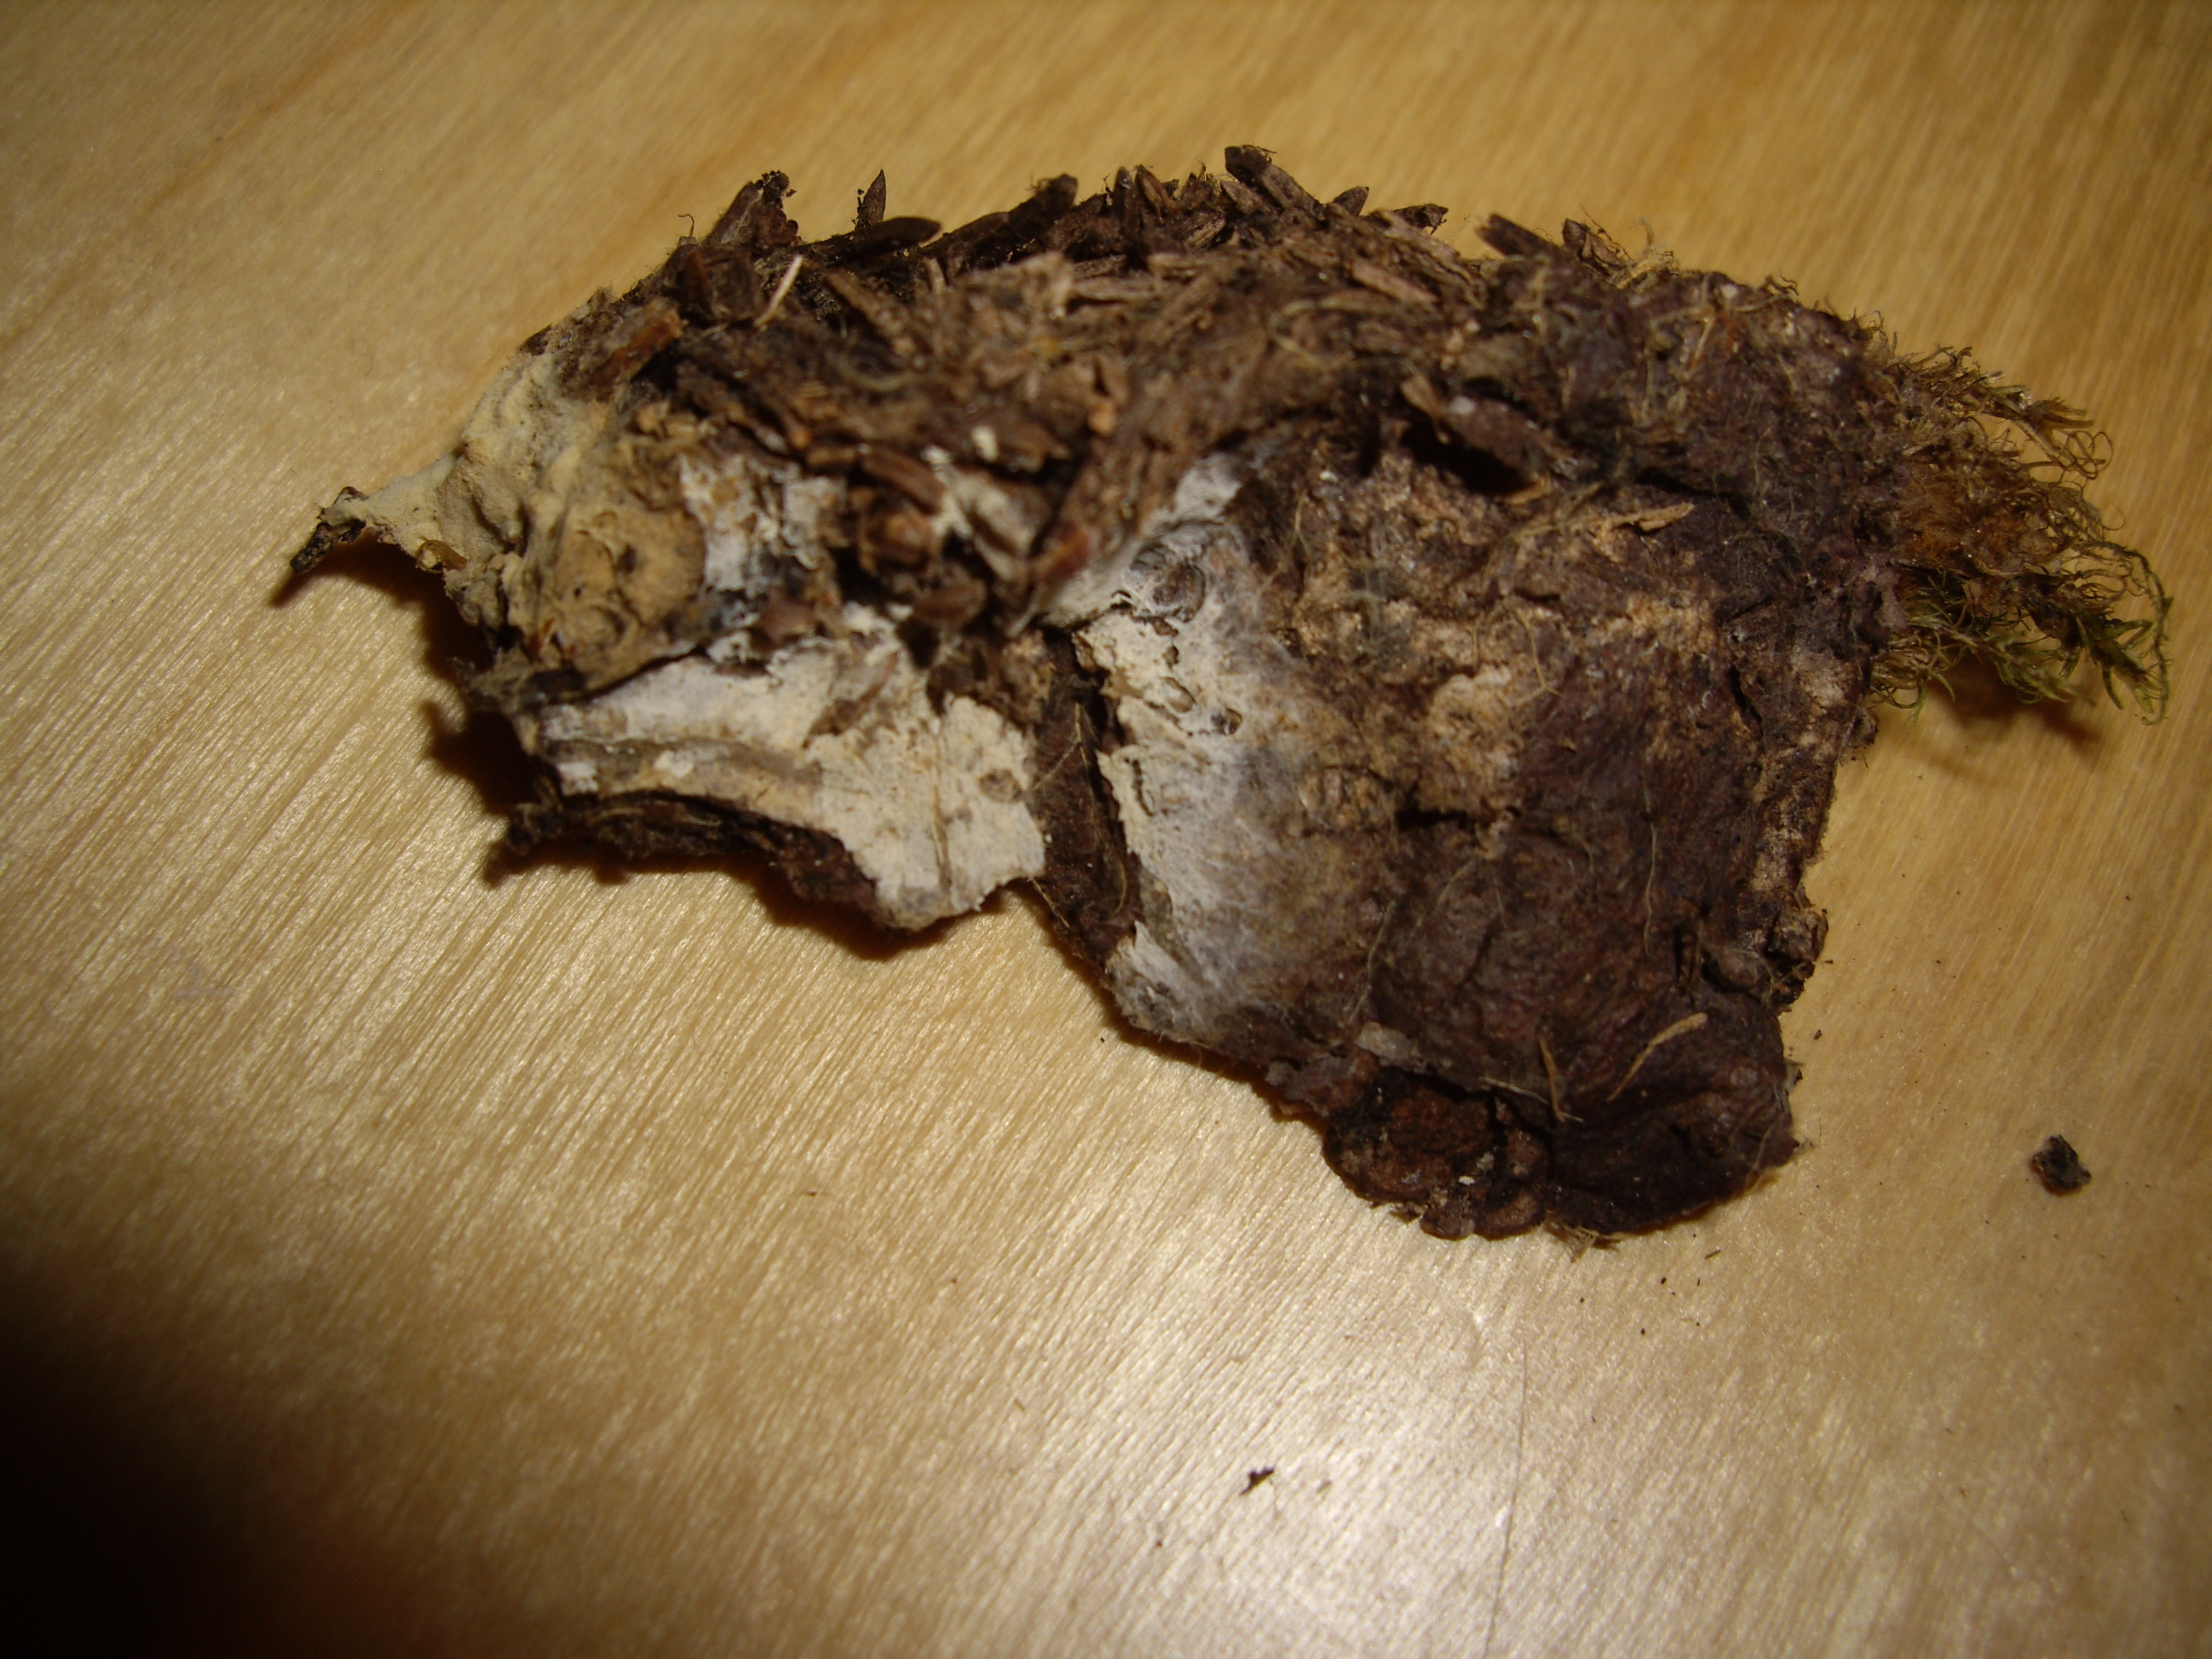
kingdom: Fungi
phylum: Basidiomycota
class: Agaricomycetes
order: Trechisporales
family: Sistotremataceae
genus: Trechispora
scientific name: Trechispora kavinioides
